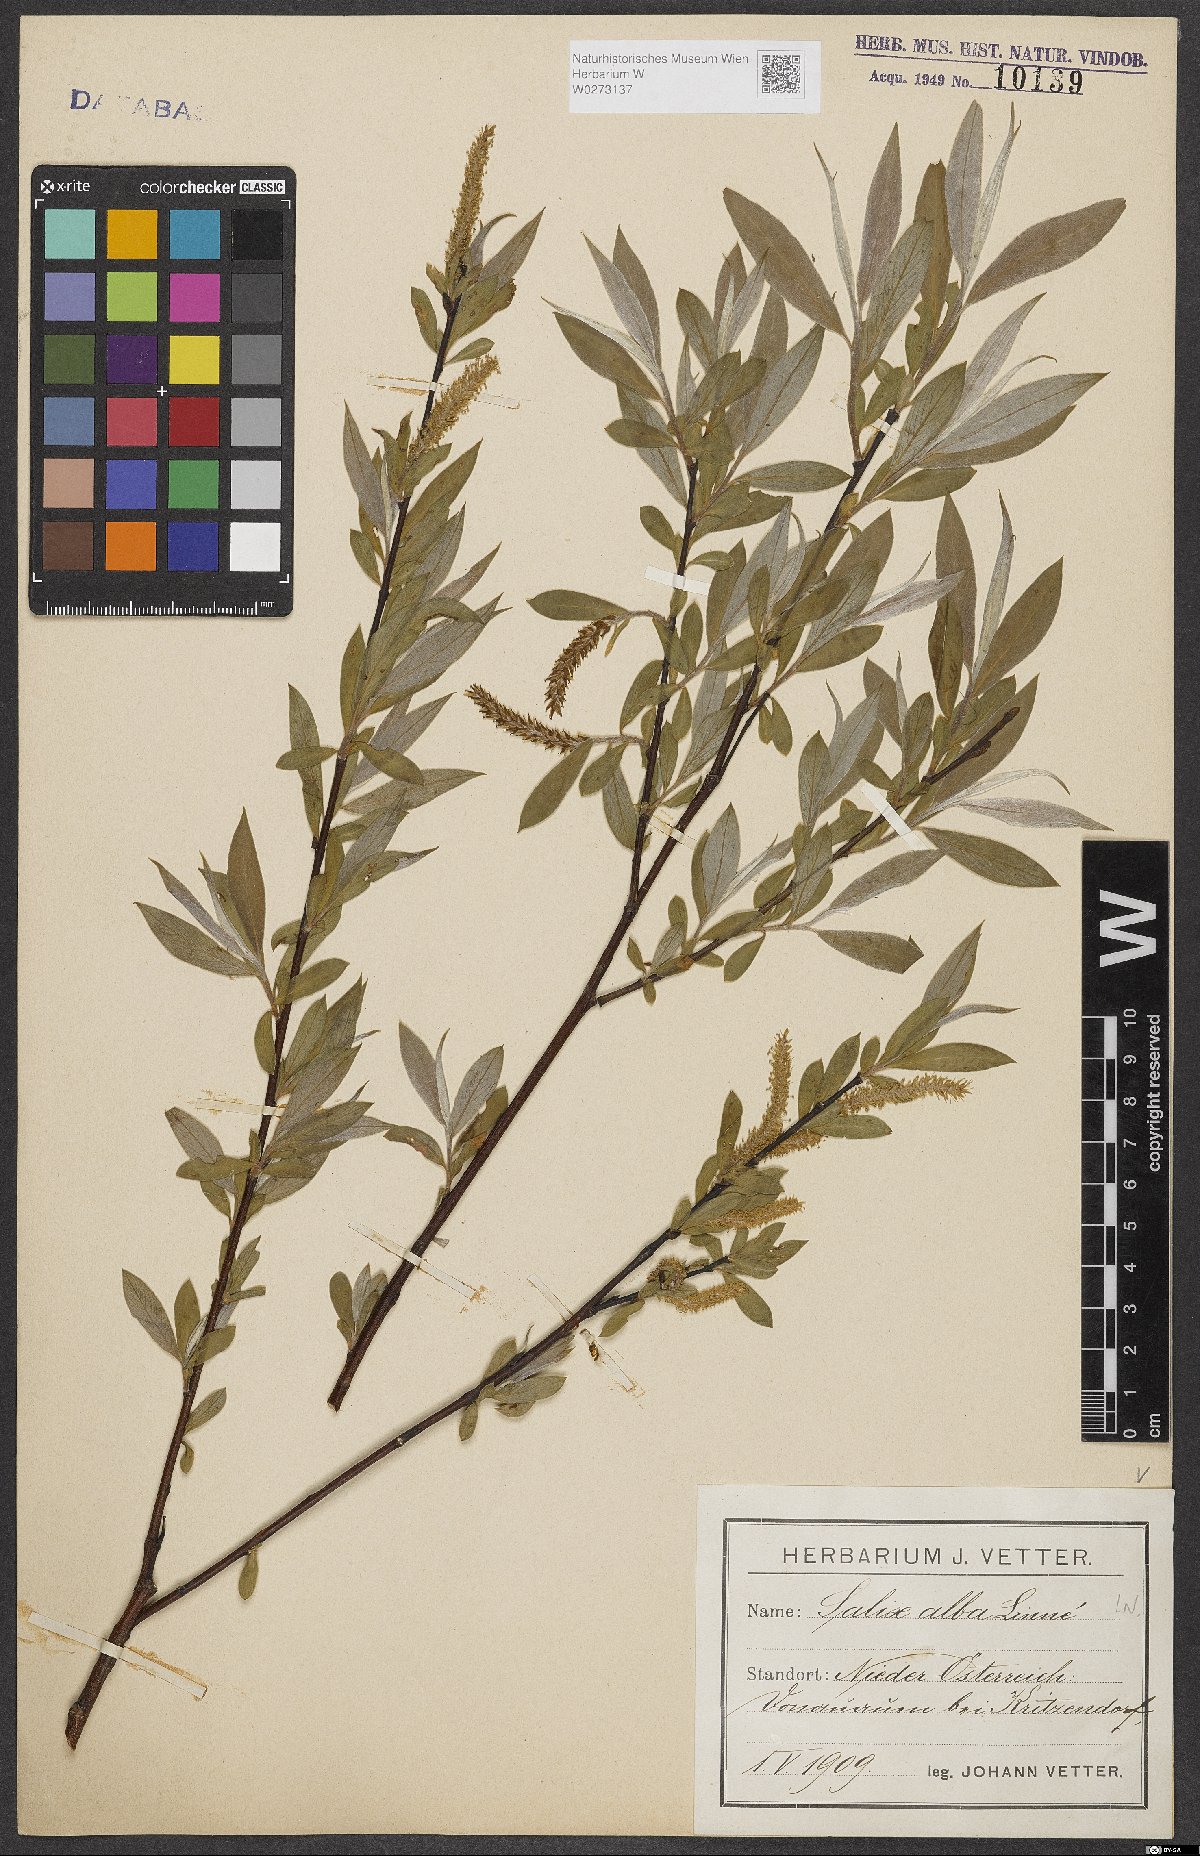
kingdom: Plantae
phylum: Tracheophyta
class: Magnoliopsida
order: Malpighiales
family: Salicaceae
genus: Salix
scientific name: Salix alba
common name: White willow
